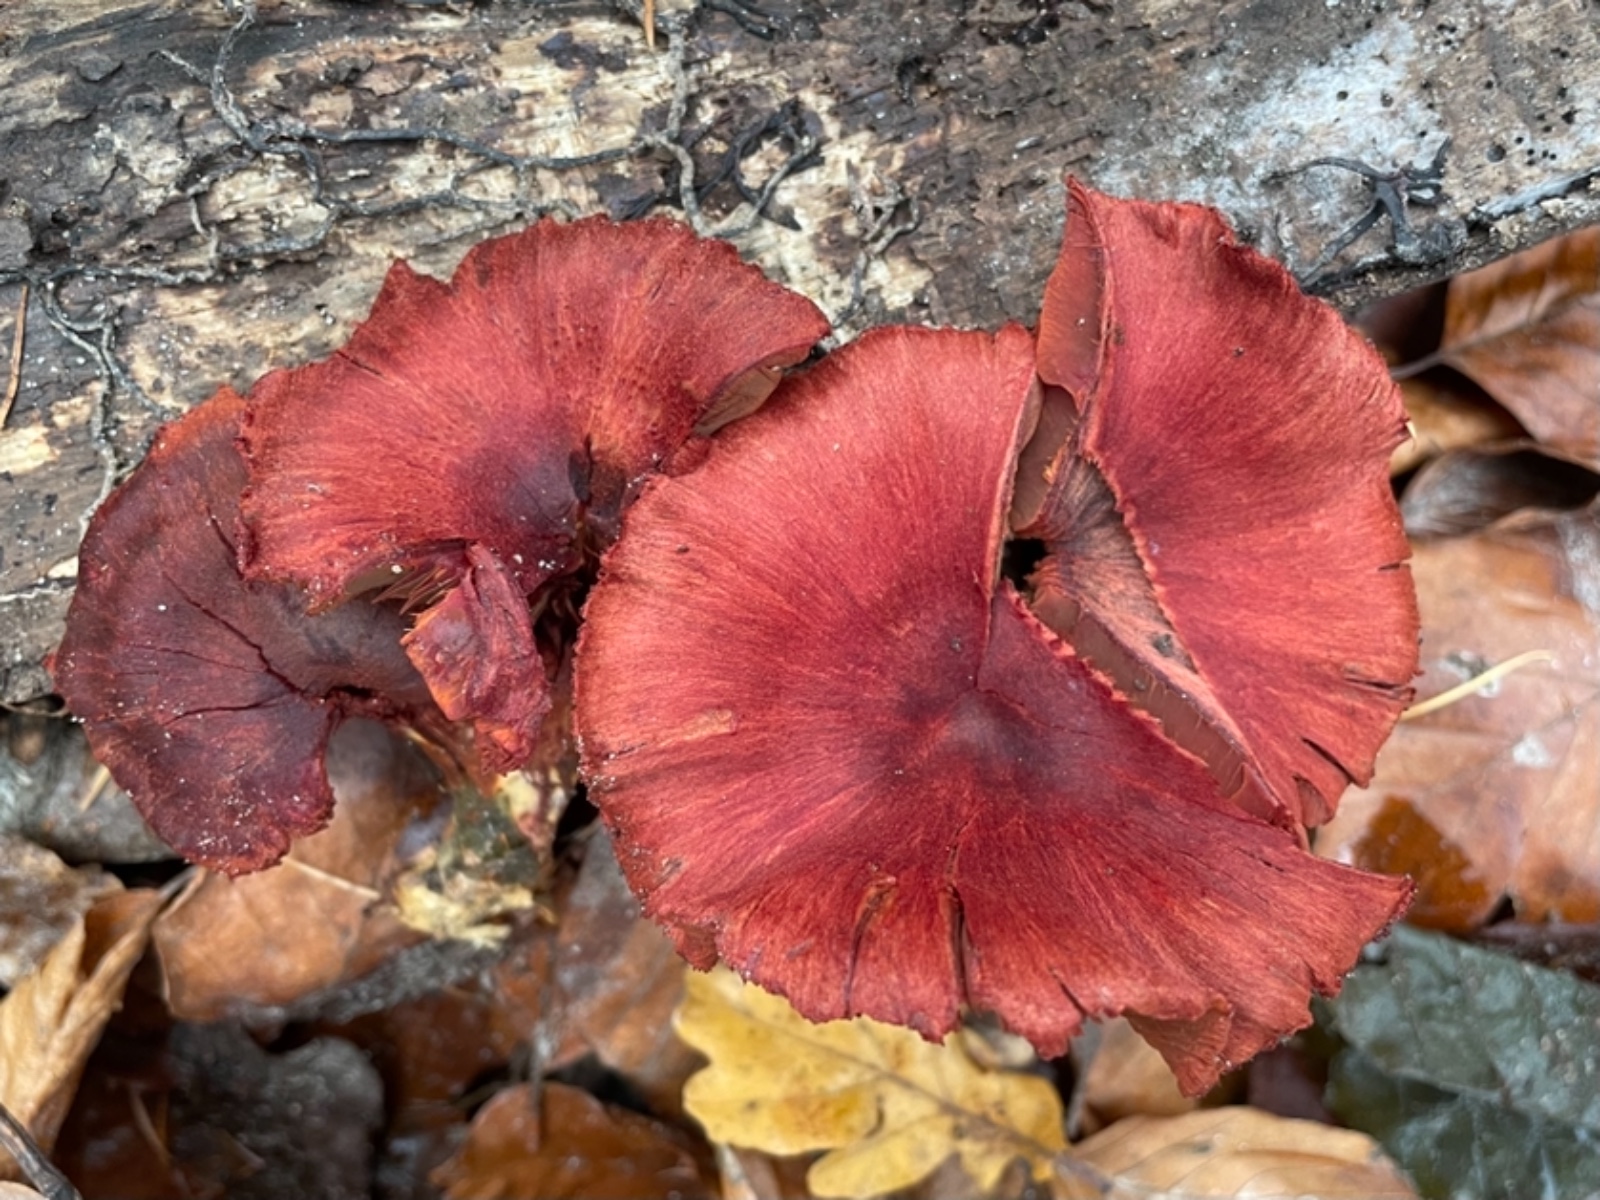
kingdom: Fungi
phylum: Basidiomycota
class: Agaricomycetes
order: Agaricales
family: Cortinariaceae
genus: Cortinarius
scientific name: Cortinarius sanguineus
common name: Bloodred webcap
